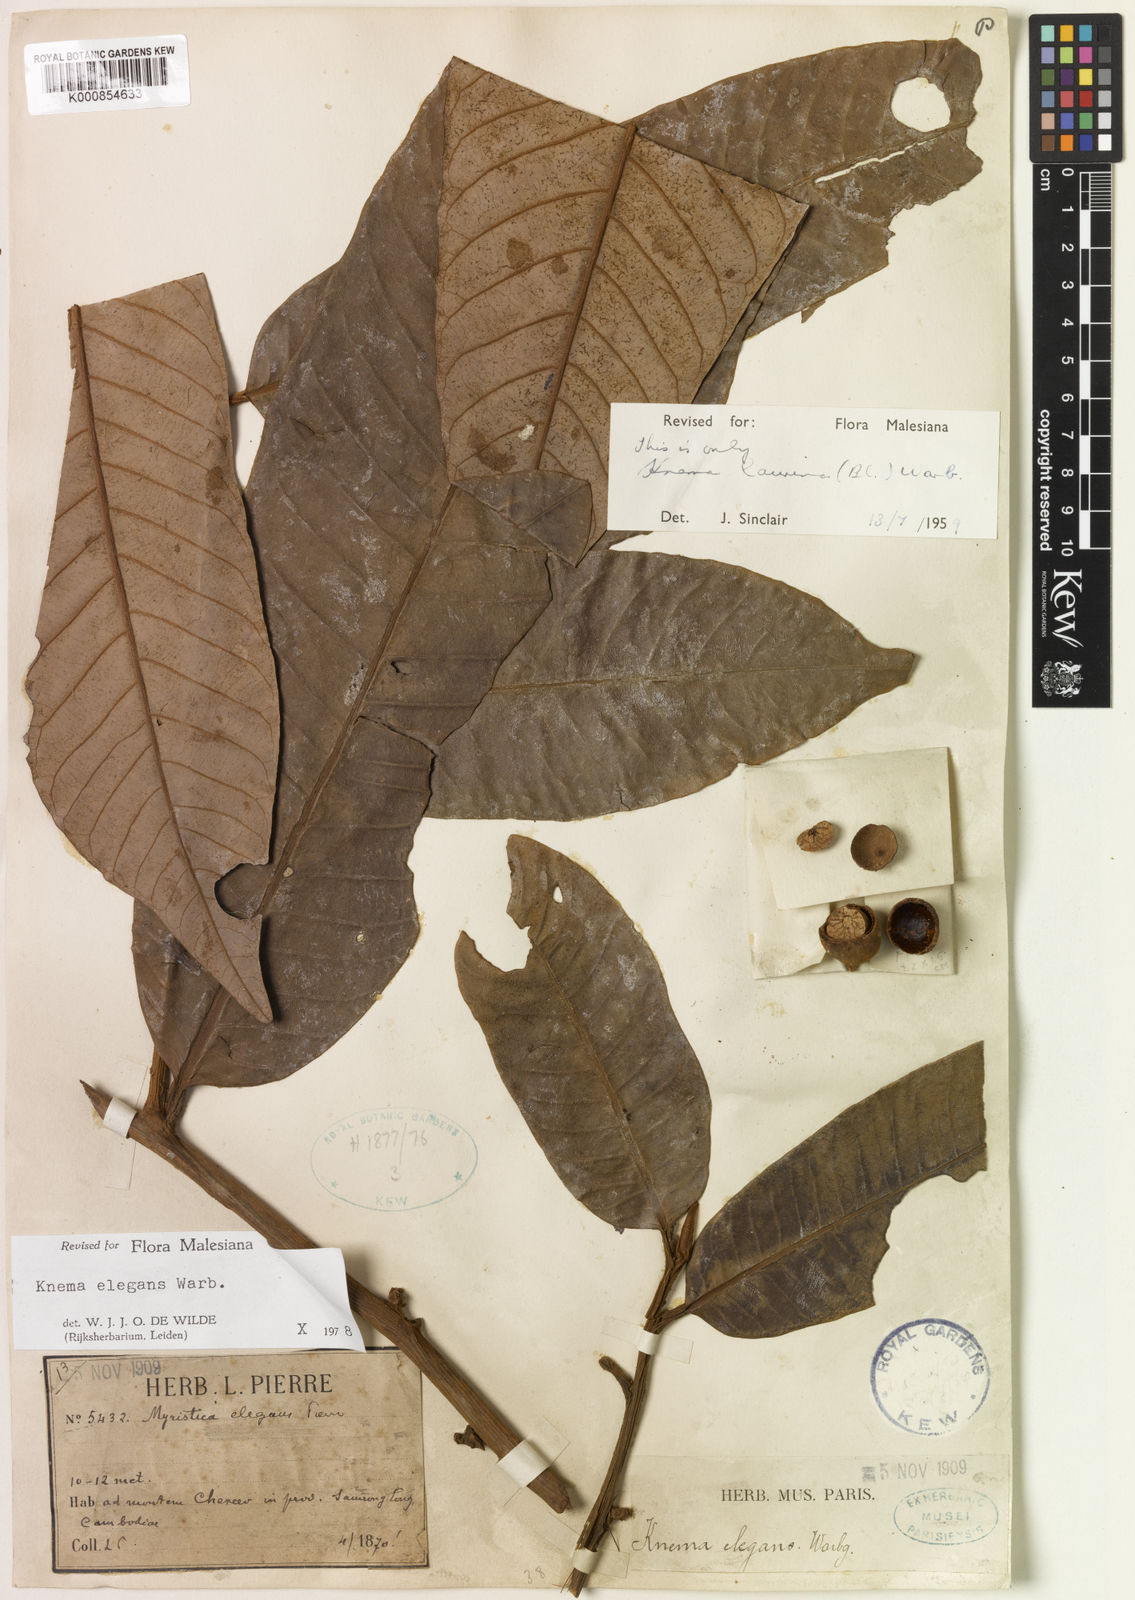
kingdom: Plantae
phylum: Tracheophyta
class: Magnoliopsida
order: Magnoliales
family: Myristicaceae
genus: Knema
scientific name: Knema elegans
